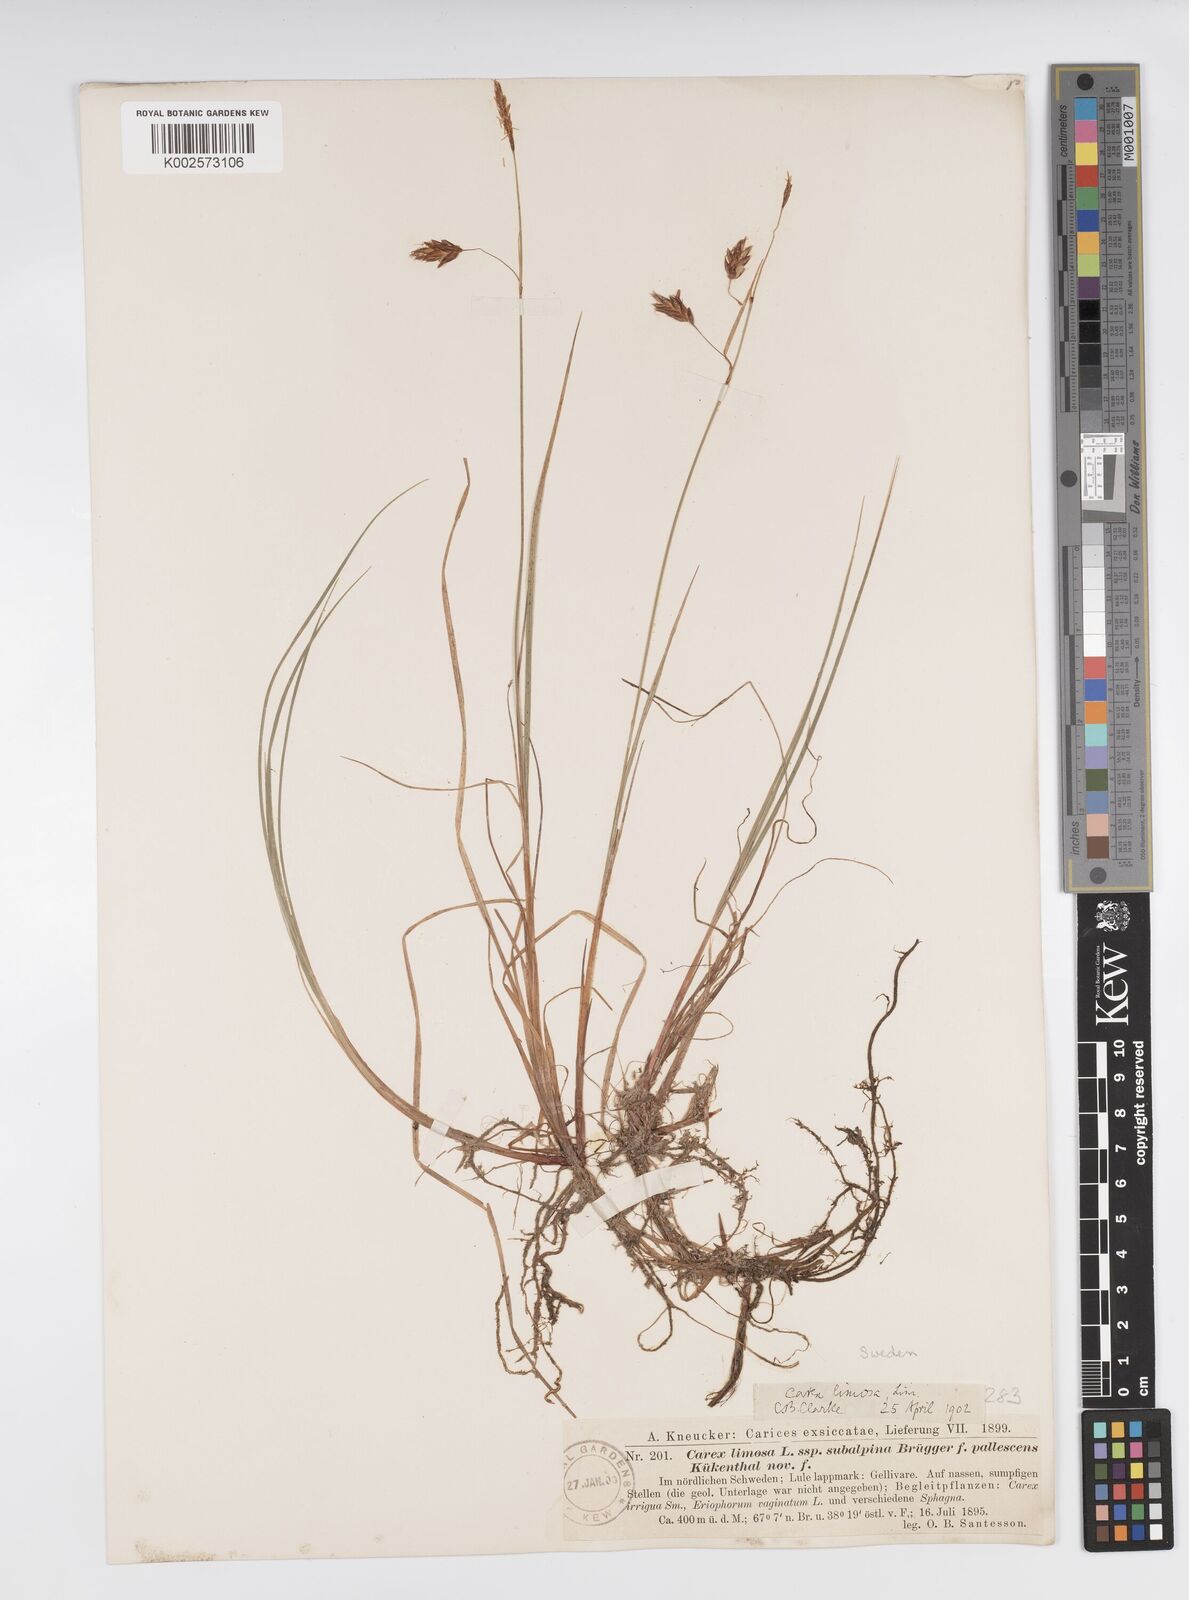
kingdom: Plantae
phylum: Tracheophyta
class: Liliopsida
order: Poales
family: Cyperaceae
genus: Carex
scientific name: Carex limosa
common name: Bog sedge
